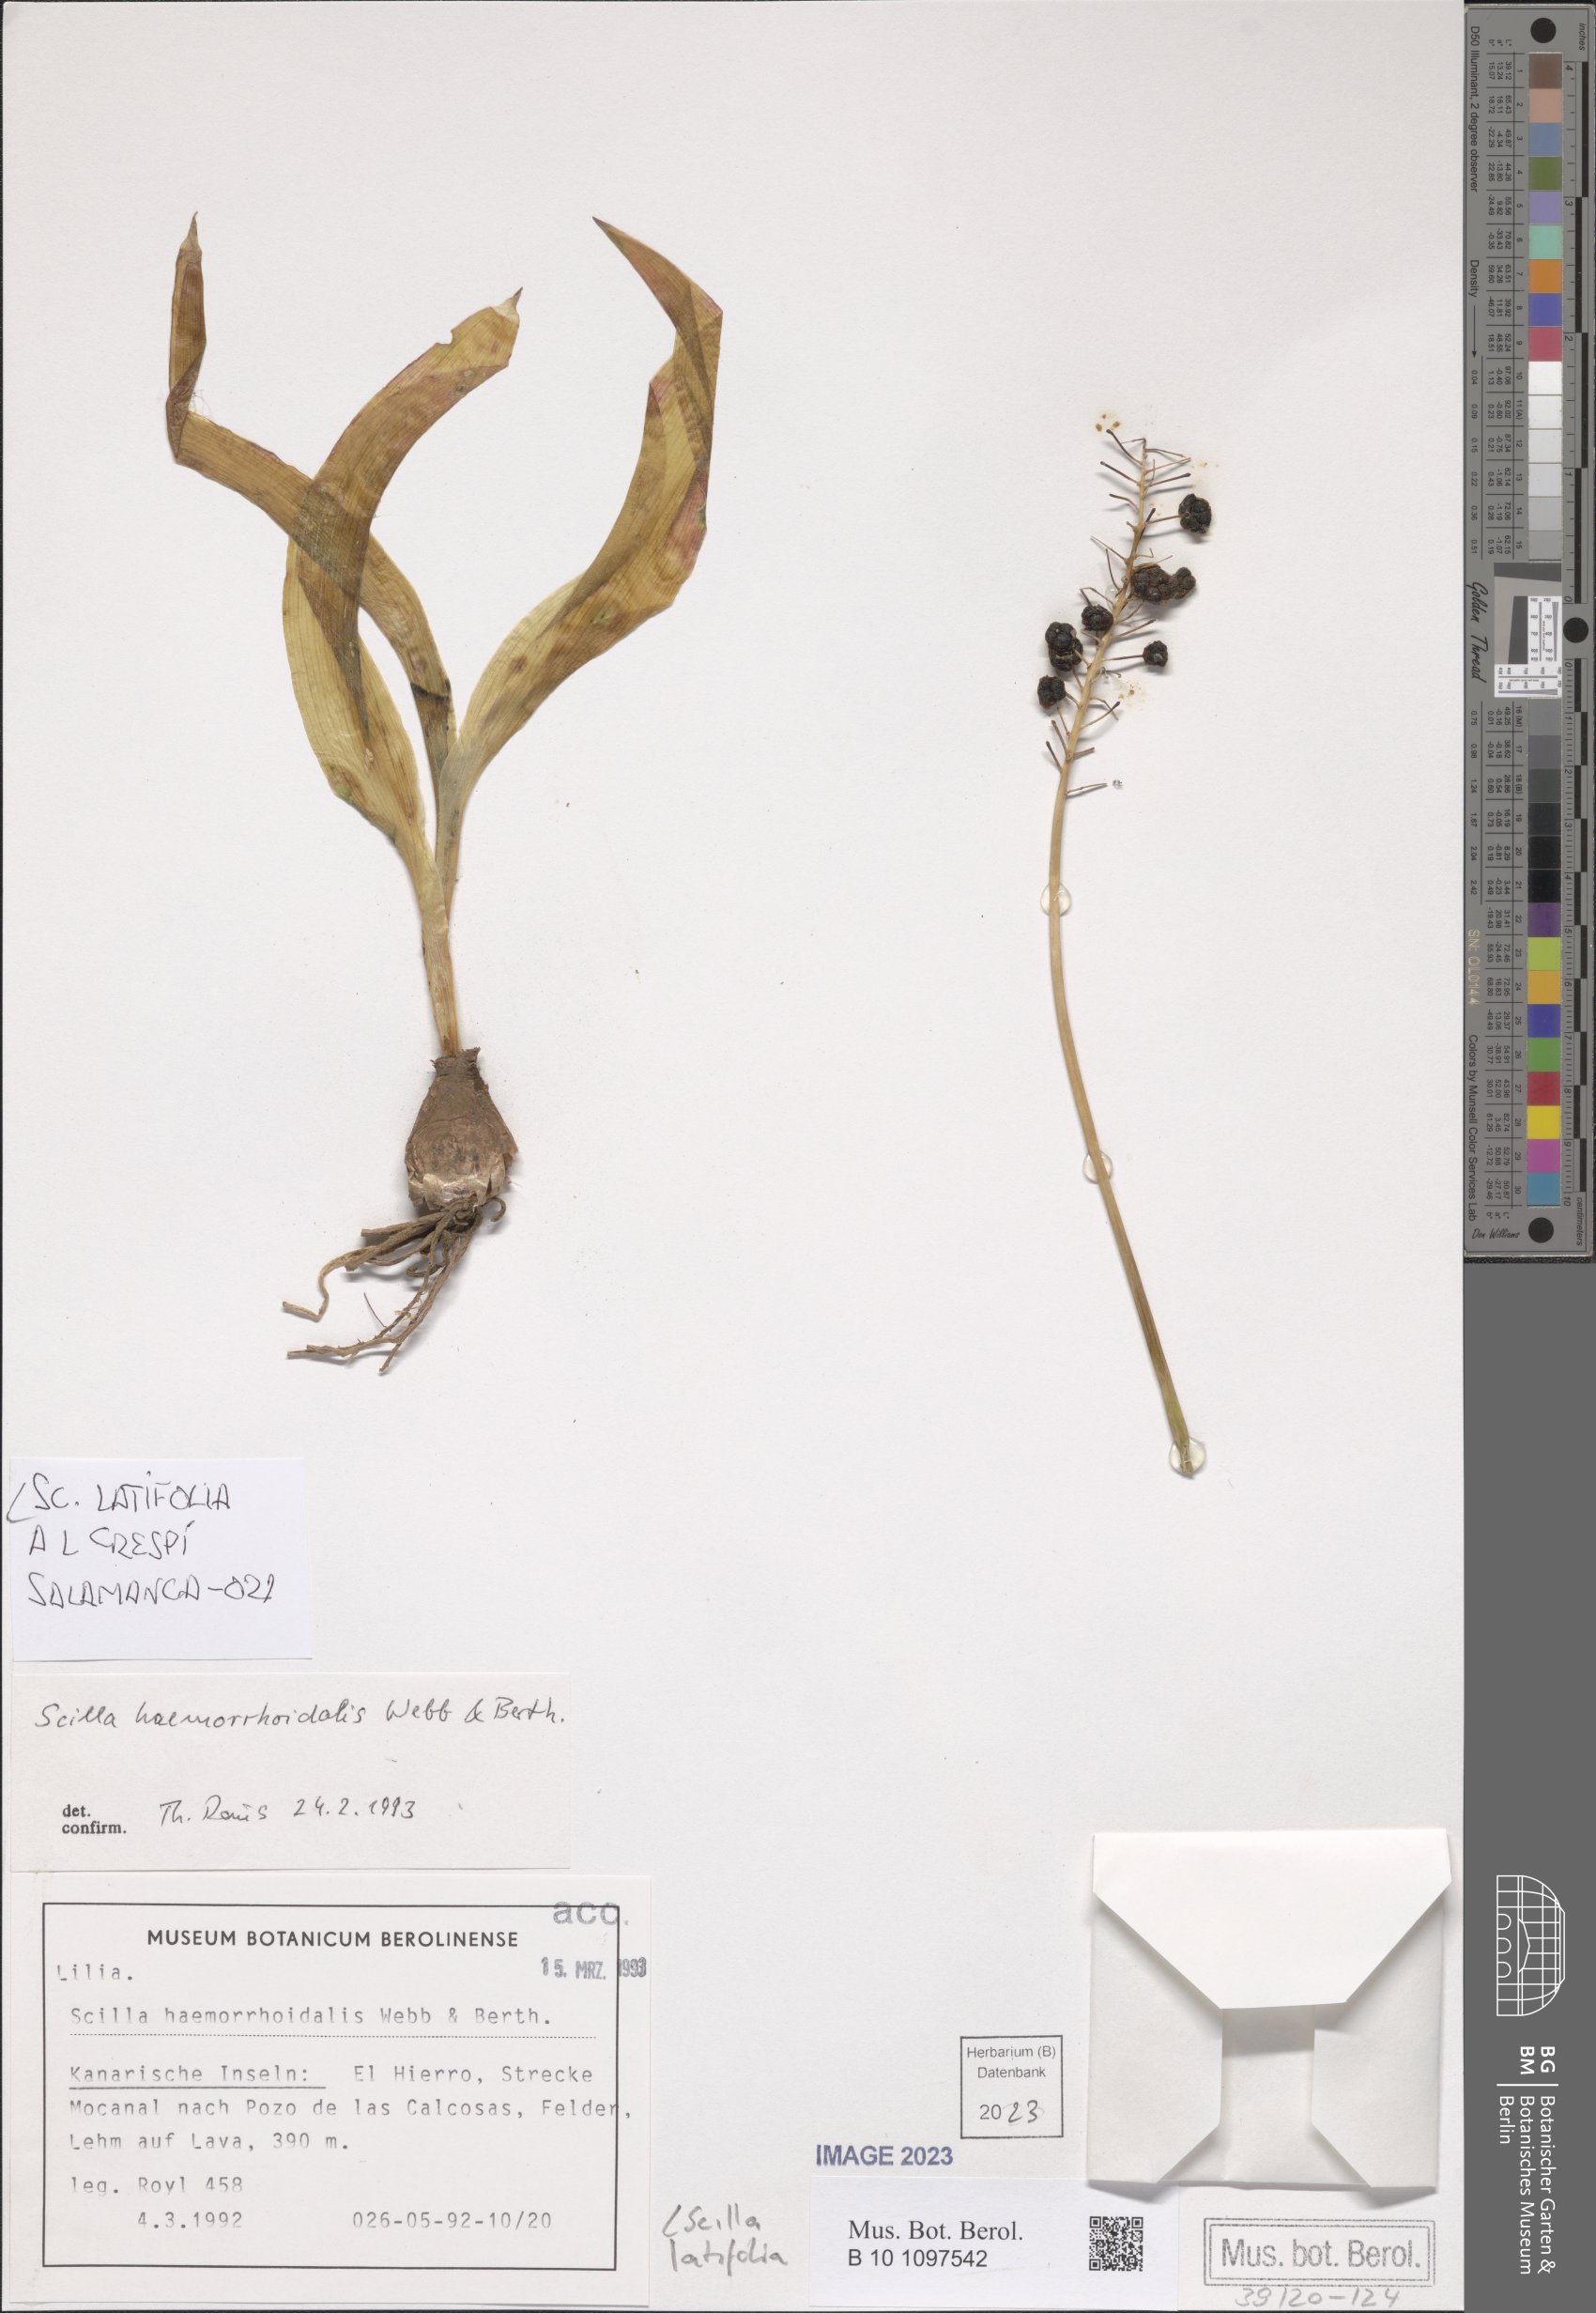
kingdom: Plantae
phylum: Tracheophyta
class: Liliopsida
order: Asparagales
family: Asparagaceae
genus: Scilla
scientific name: Scilla latifolia
